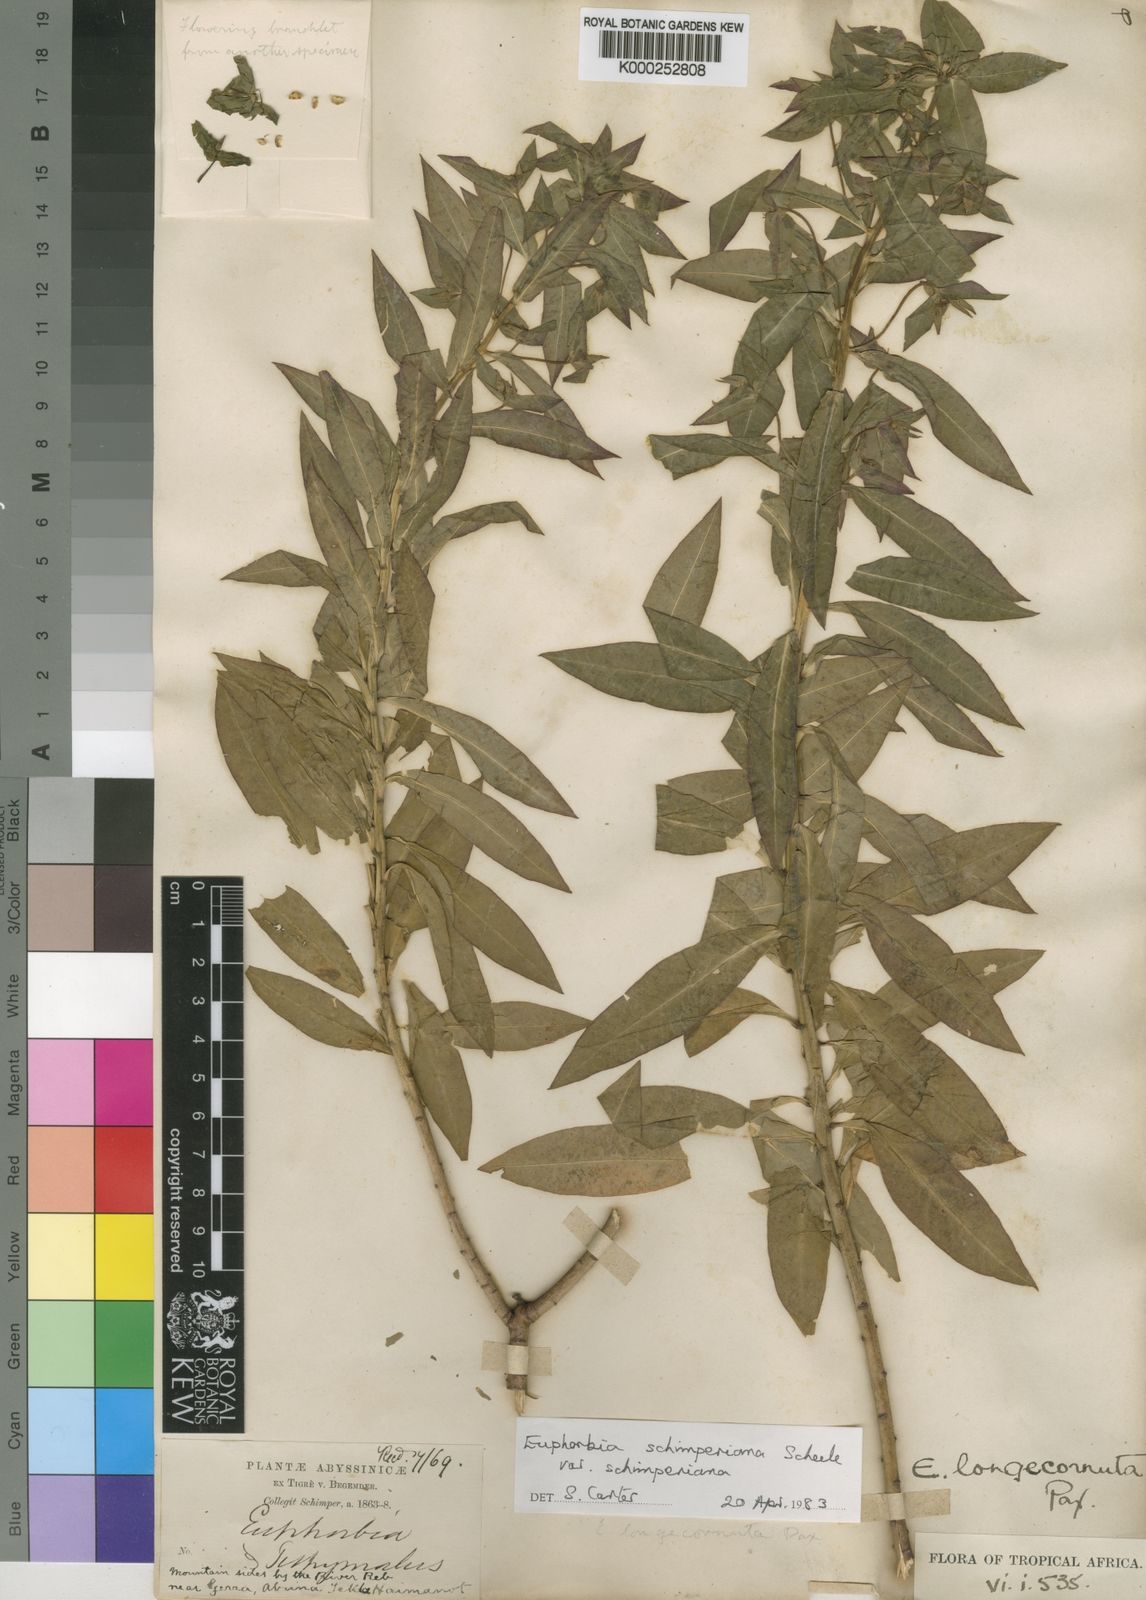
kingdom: Plantae
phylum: Tracheophyta
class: Magnoliopsida
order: Malpighiales
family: Euphorbiaceae
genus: Euphorbia
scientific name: Euphorbia schimperiana
